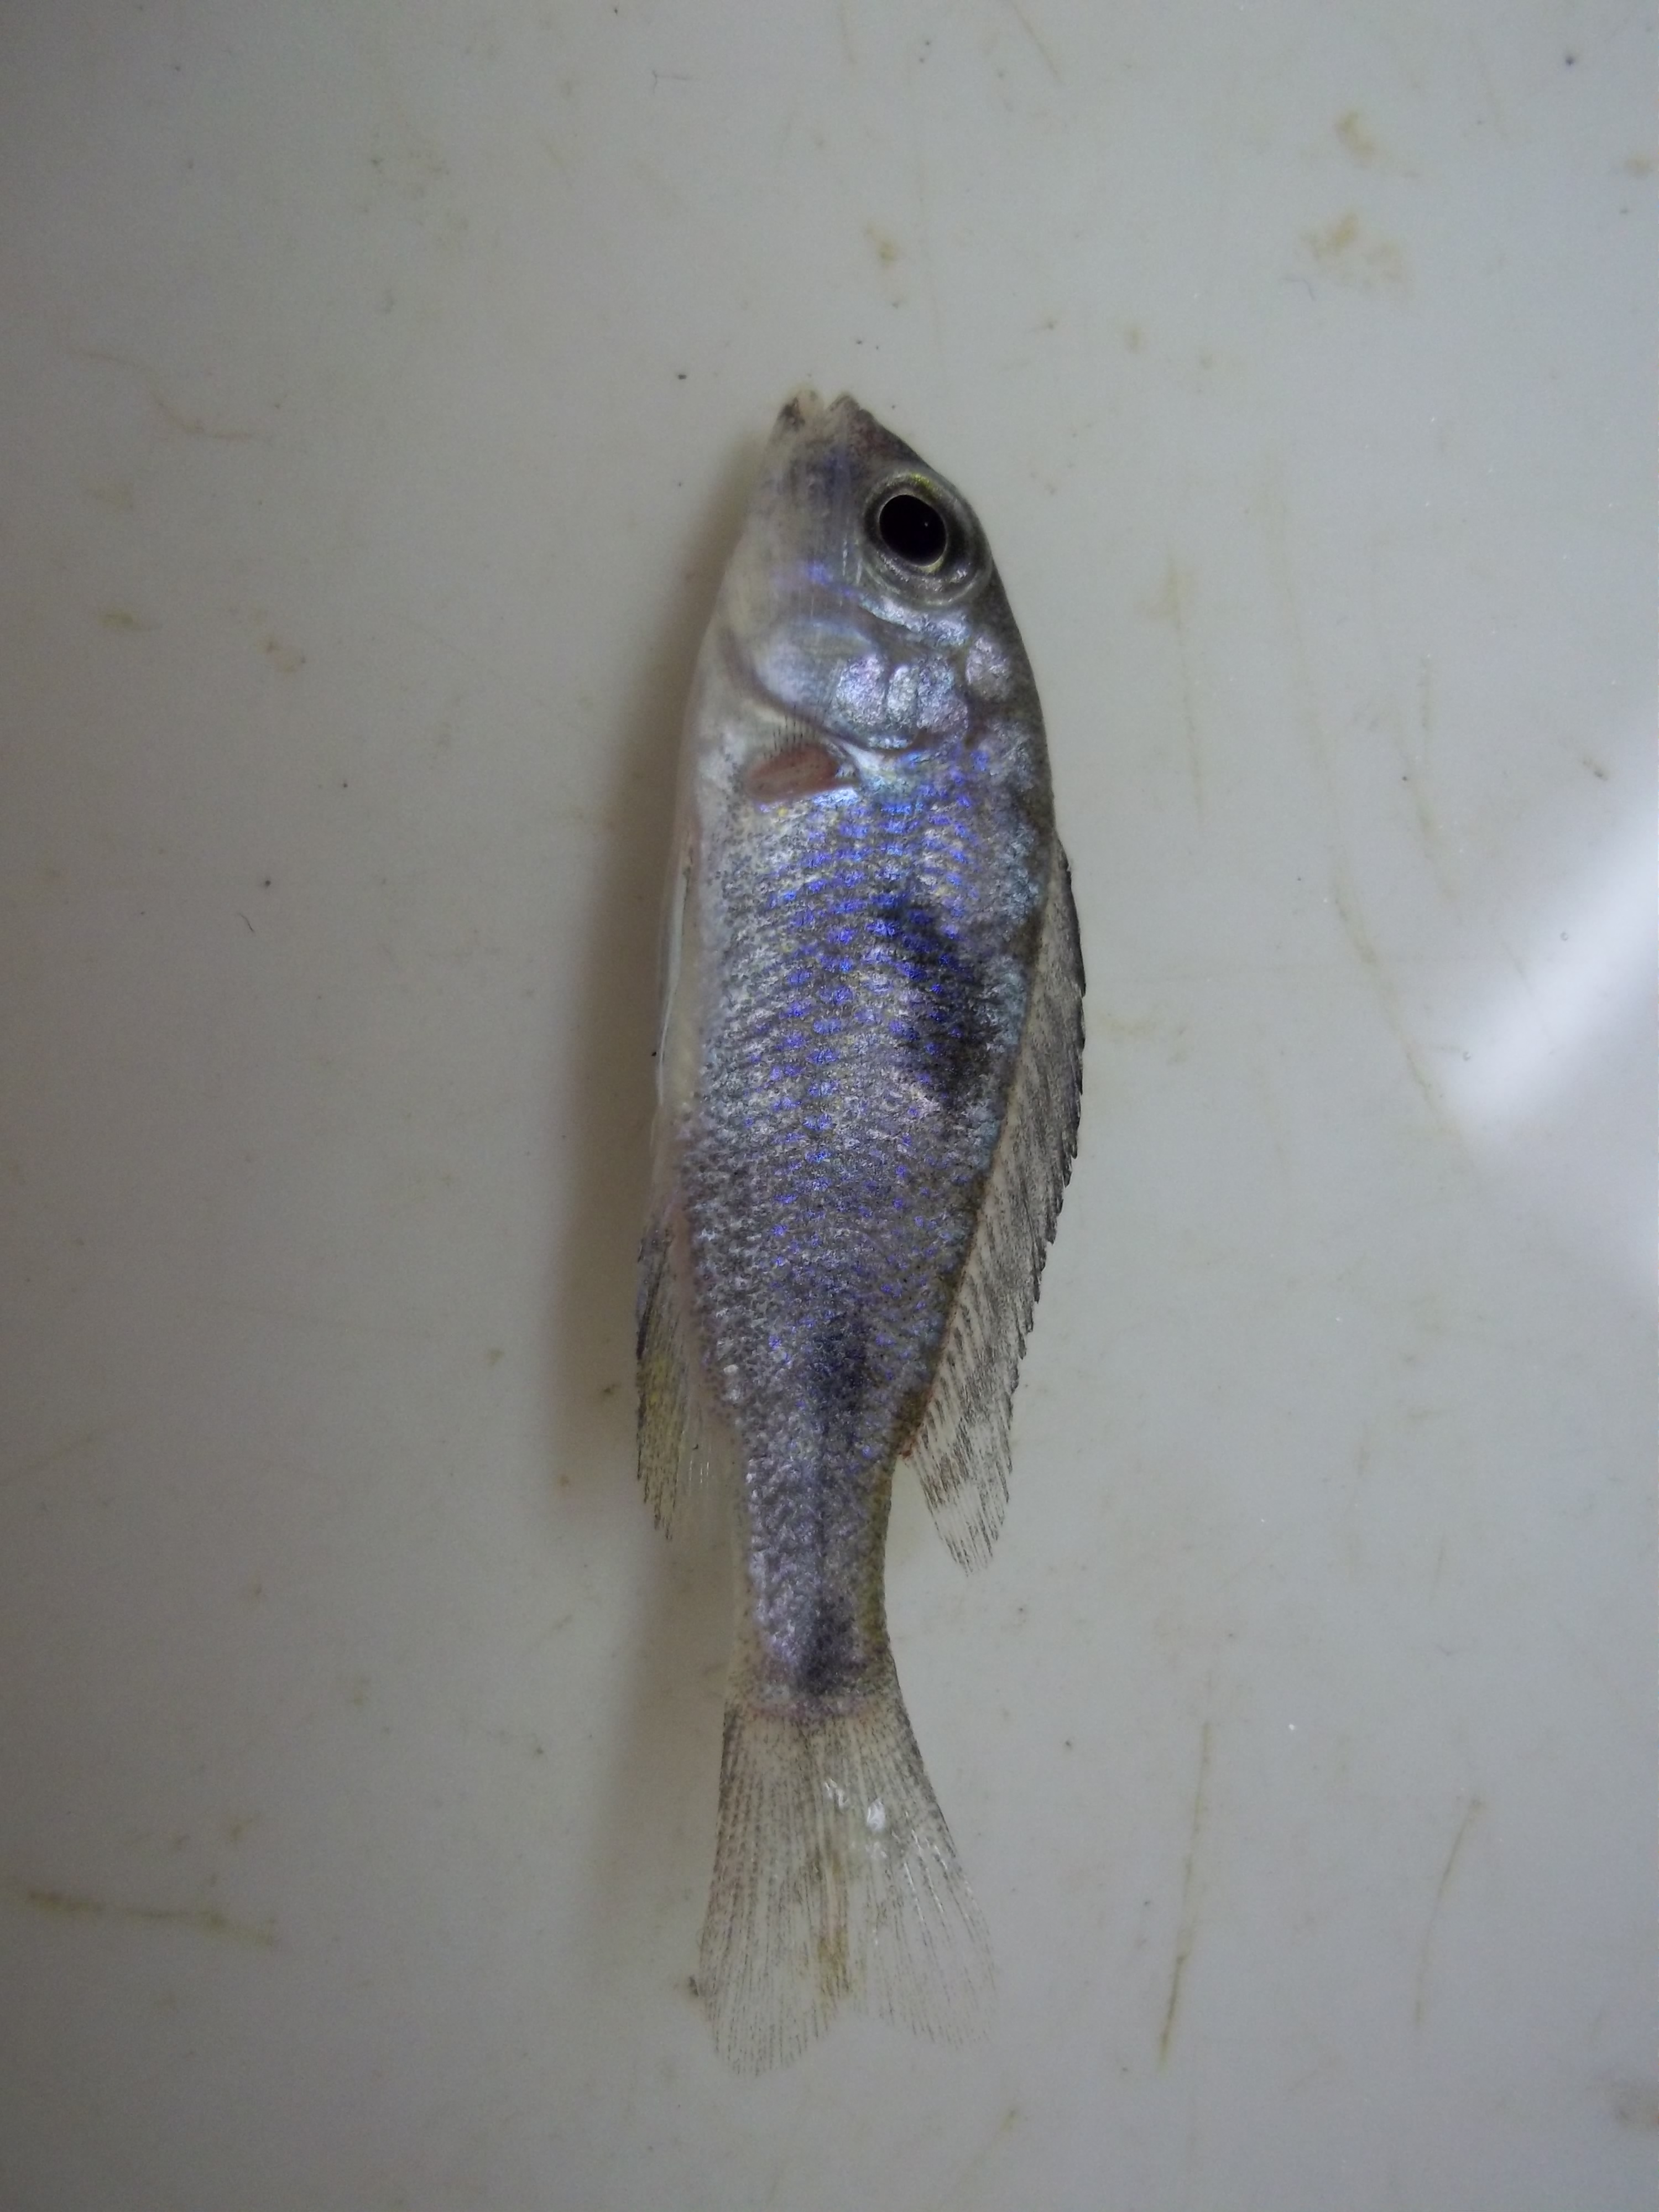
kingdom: Animalia
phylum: Chordata
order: Perciformes
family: Cichlidae
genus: Cyrtocara
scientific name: Cyrtocara moorii
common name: Hump-head
